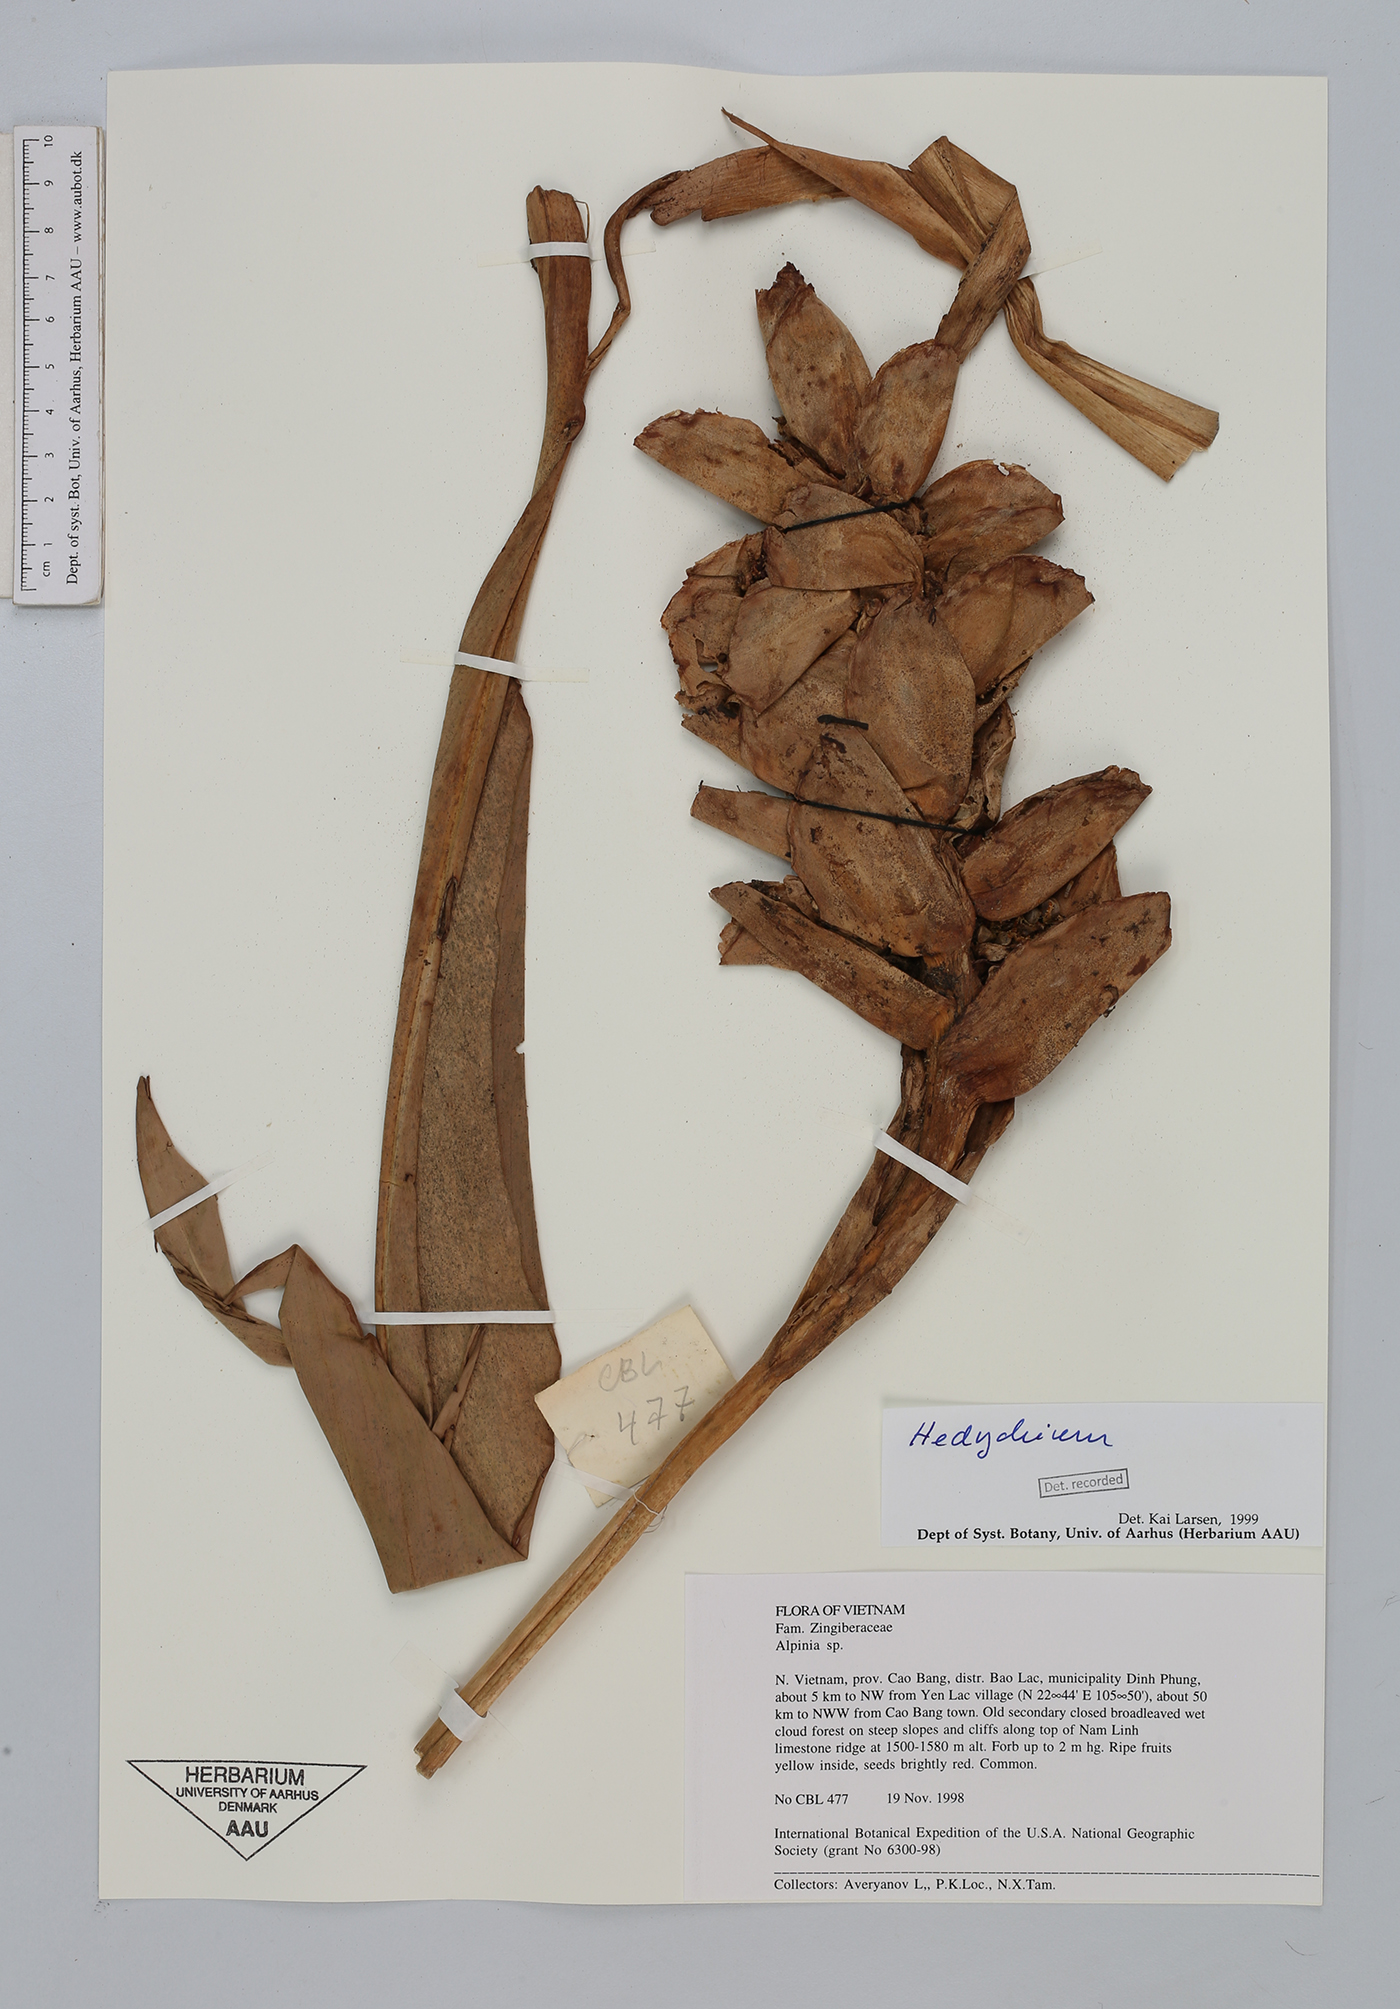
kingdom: Plantae
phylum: Tracheophyta
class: Liliopsida
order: Zingiberales
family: Zingiberaceae
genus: Hedychium
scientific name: Hedychium
